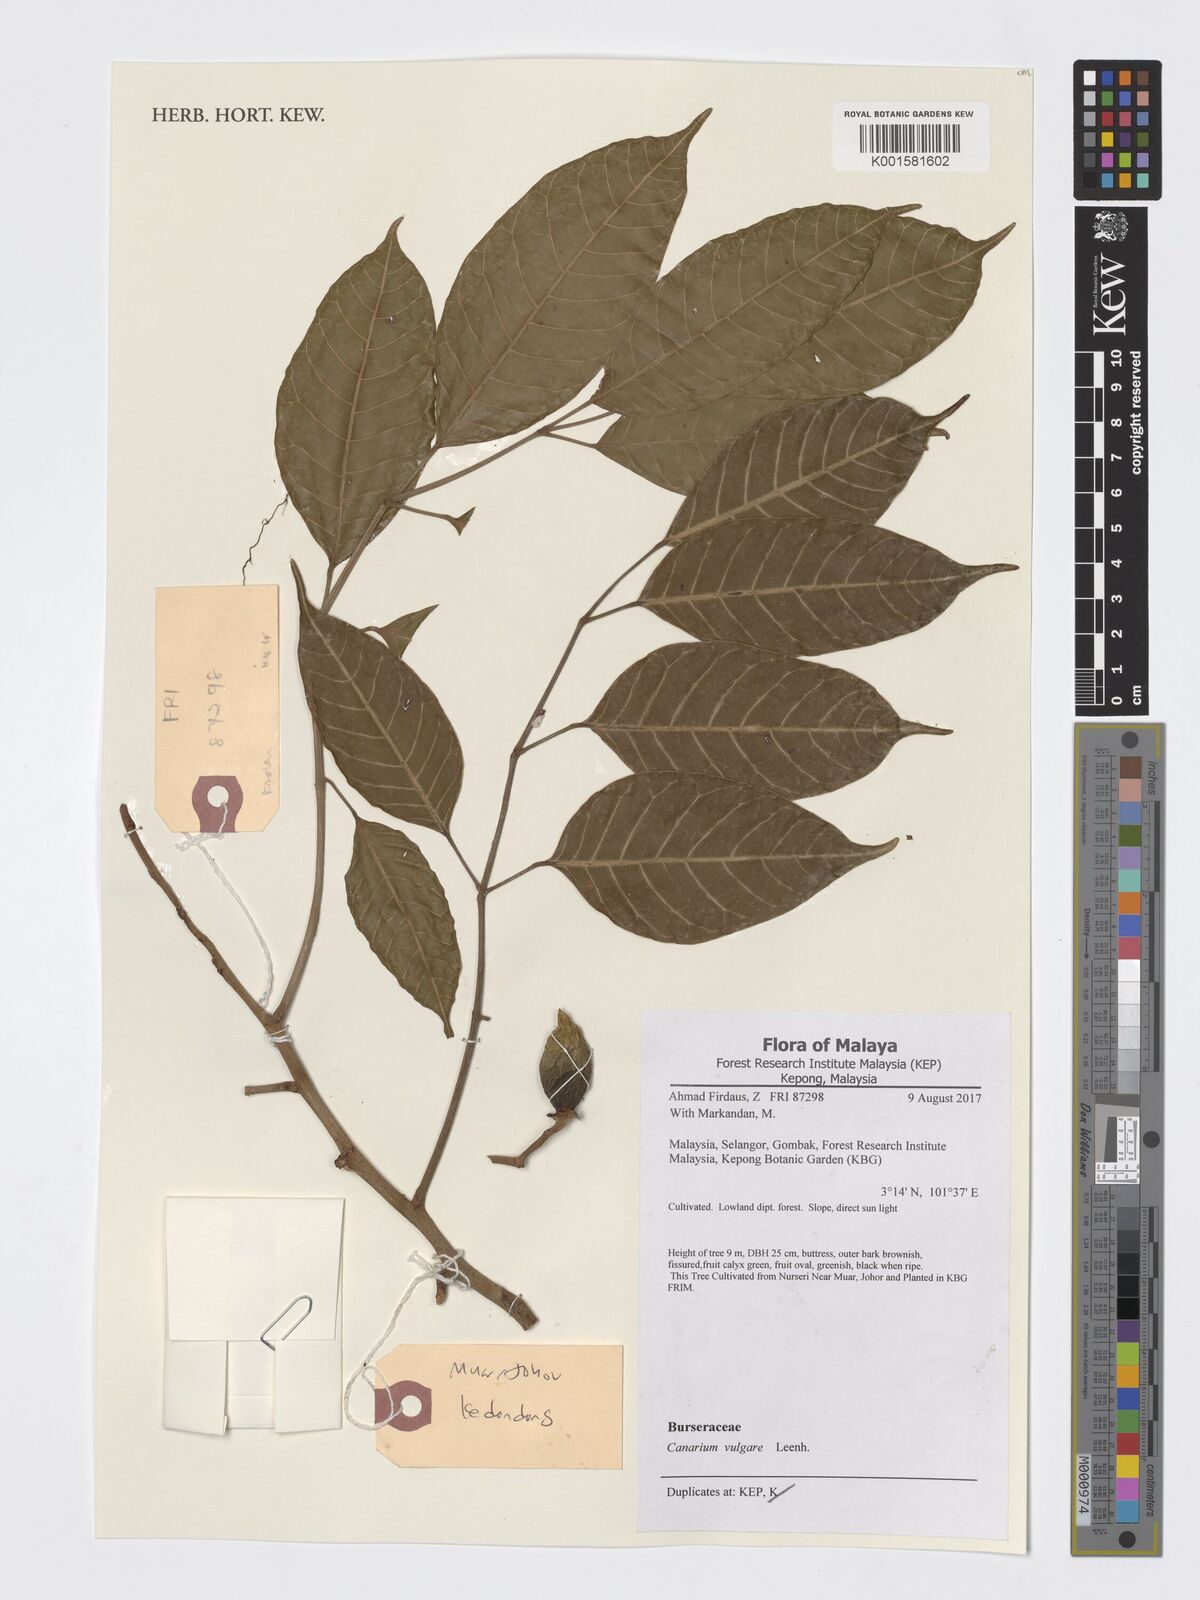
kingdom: Plantae
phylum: Tracheophyta
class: Magnoliopsida
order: Sapindales
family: Burseraceae
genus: Canarium
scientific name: Canarium vulgare
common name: Java almond
